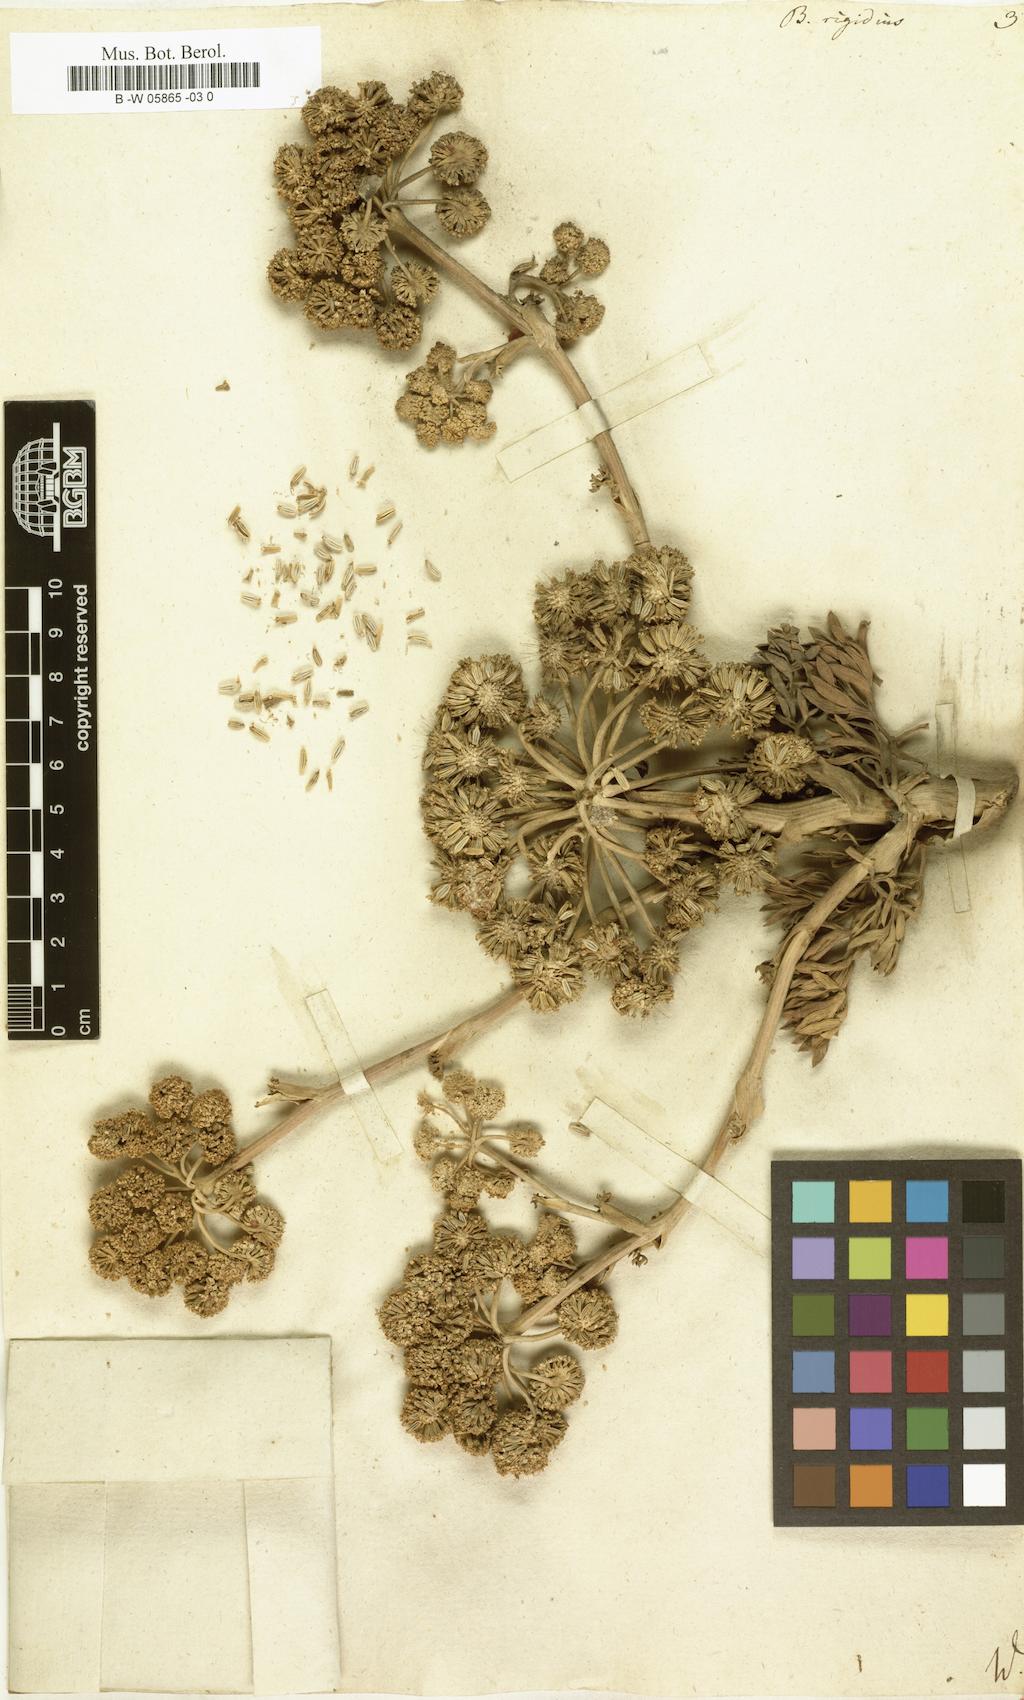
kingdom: Plantae
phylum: Tracheophyta
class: Magnoliopsida
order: Apiales
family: Apiaceae
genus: Ferula
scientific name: Ferula communis
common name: Giant fennel
